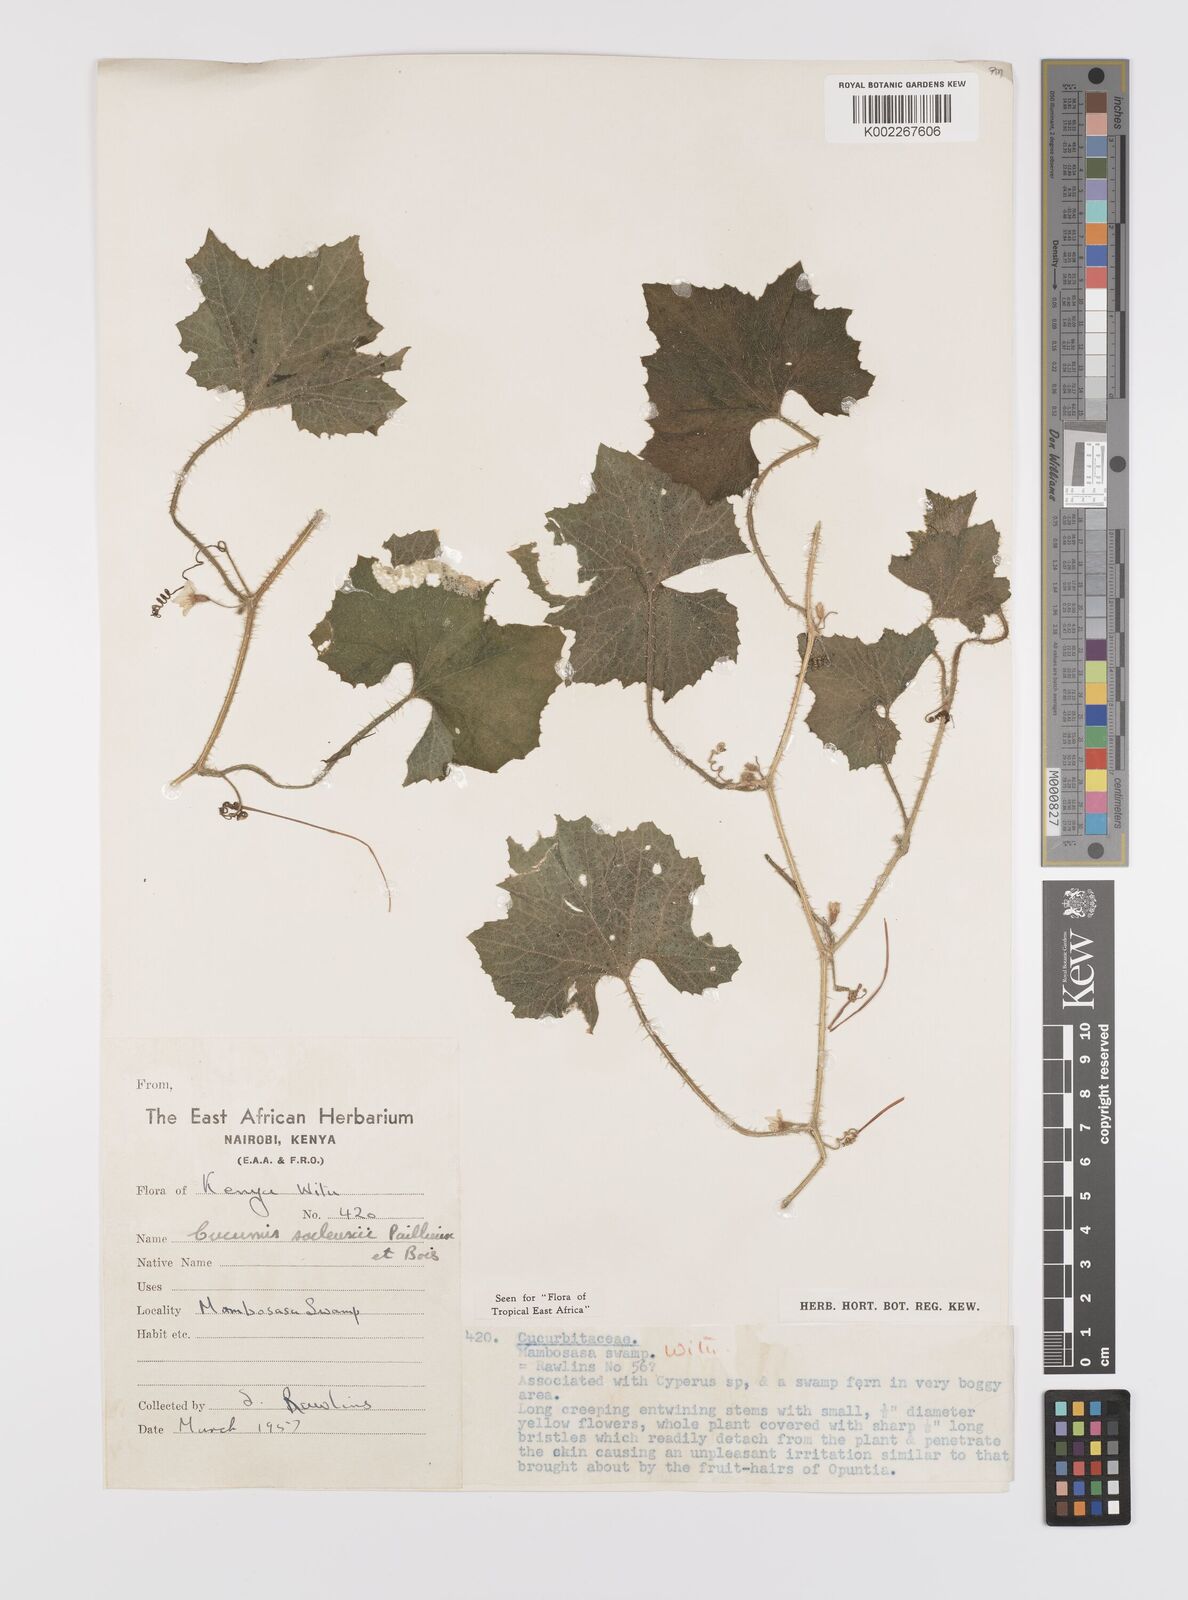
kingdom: Plantae
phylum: Tracheophyta
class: Magnoliopsida
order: Cucurbitales
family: Cucurbitaceae
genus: Cucumis
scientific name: Cucumis sacleuxii
